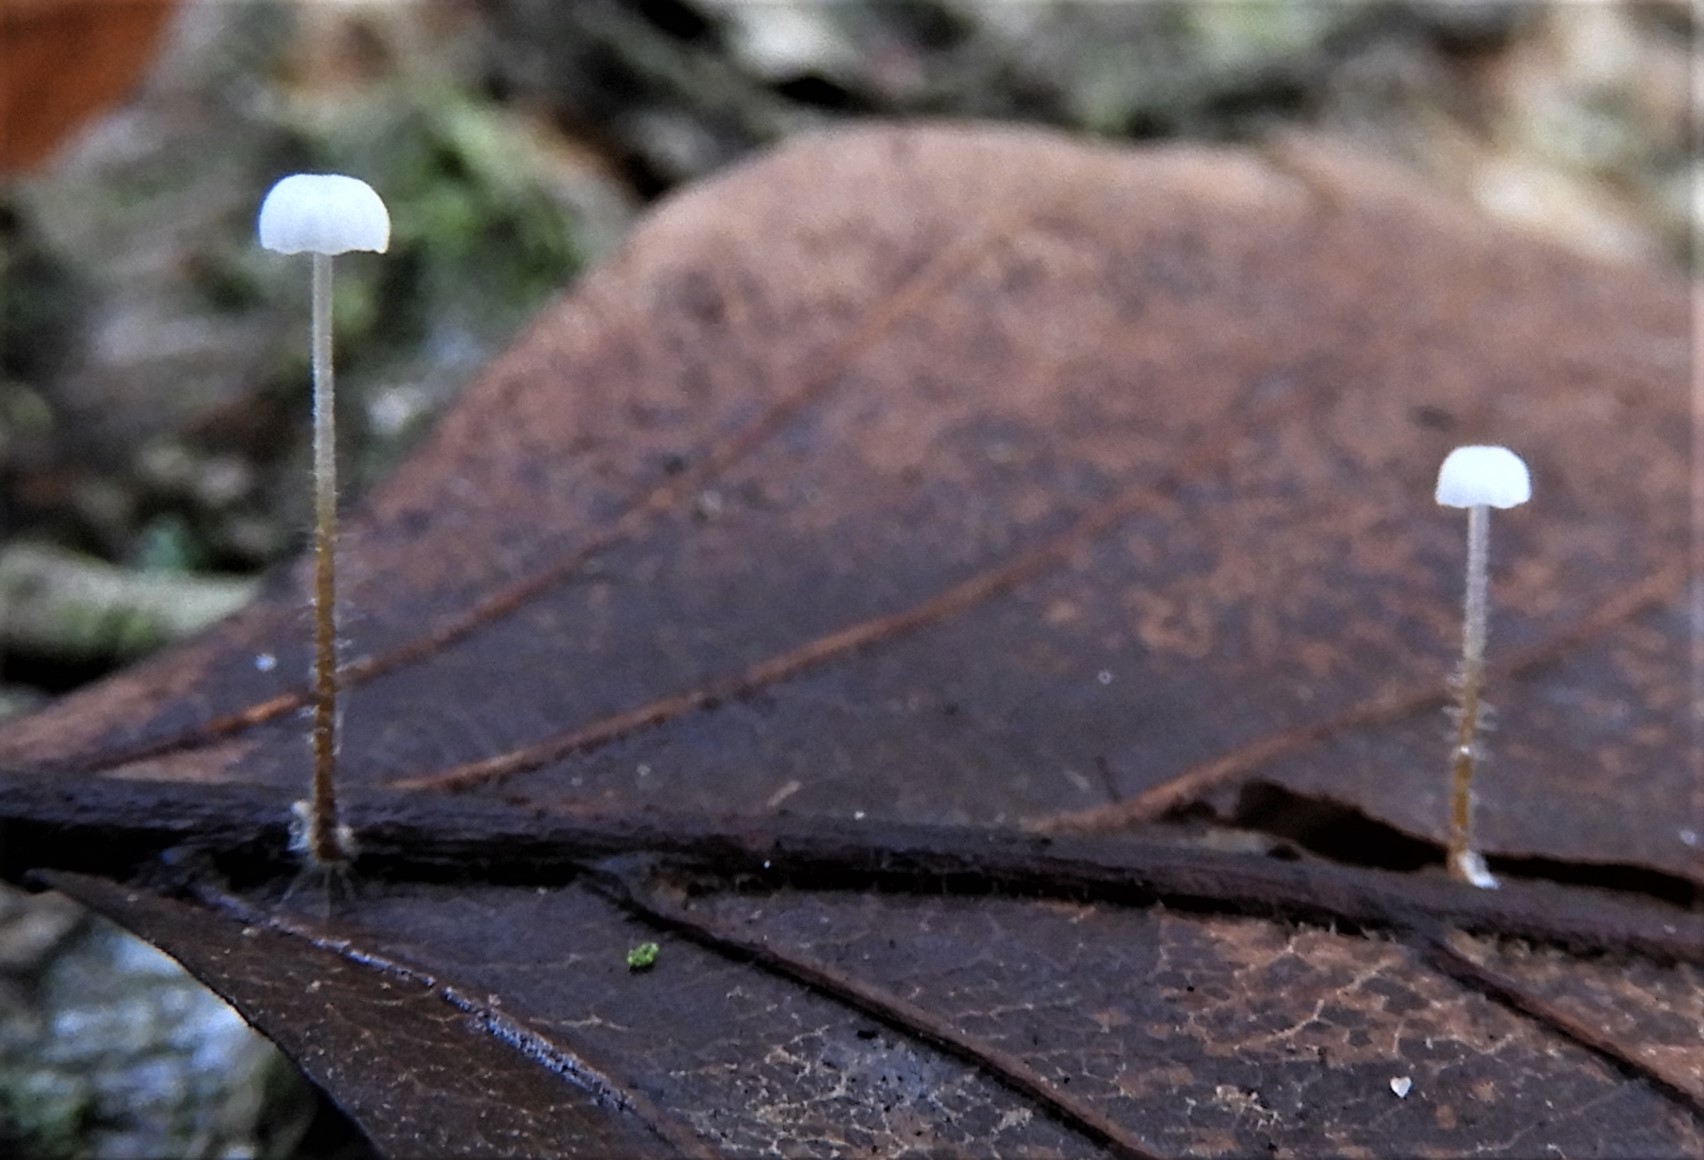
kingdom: Fungi
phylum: Basidiomycota
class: Agaricomycetes
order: Agaricales
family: Physalacriaceae
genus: Rhizomarasmius
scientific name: Rhizomarasmius setosus
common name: bøgeblads-bruskhat
